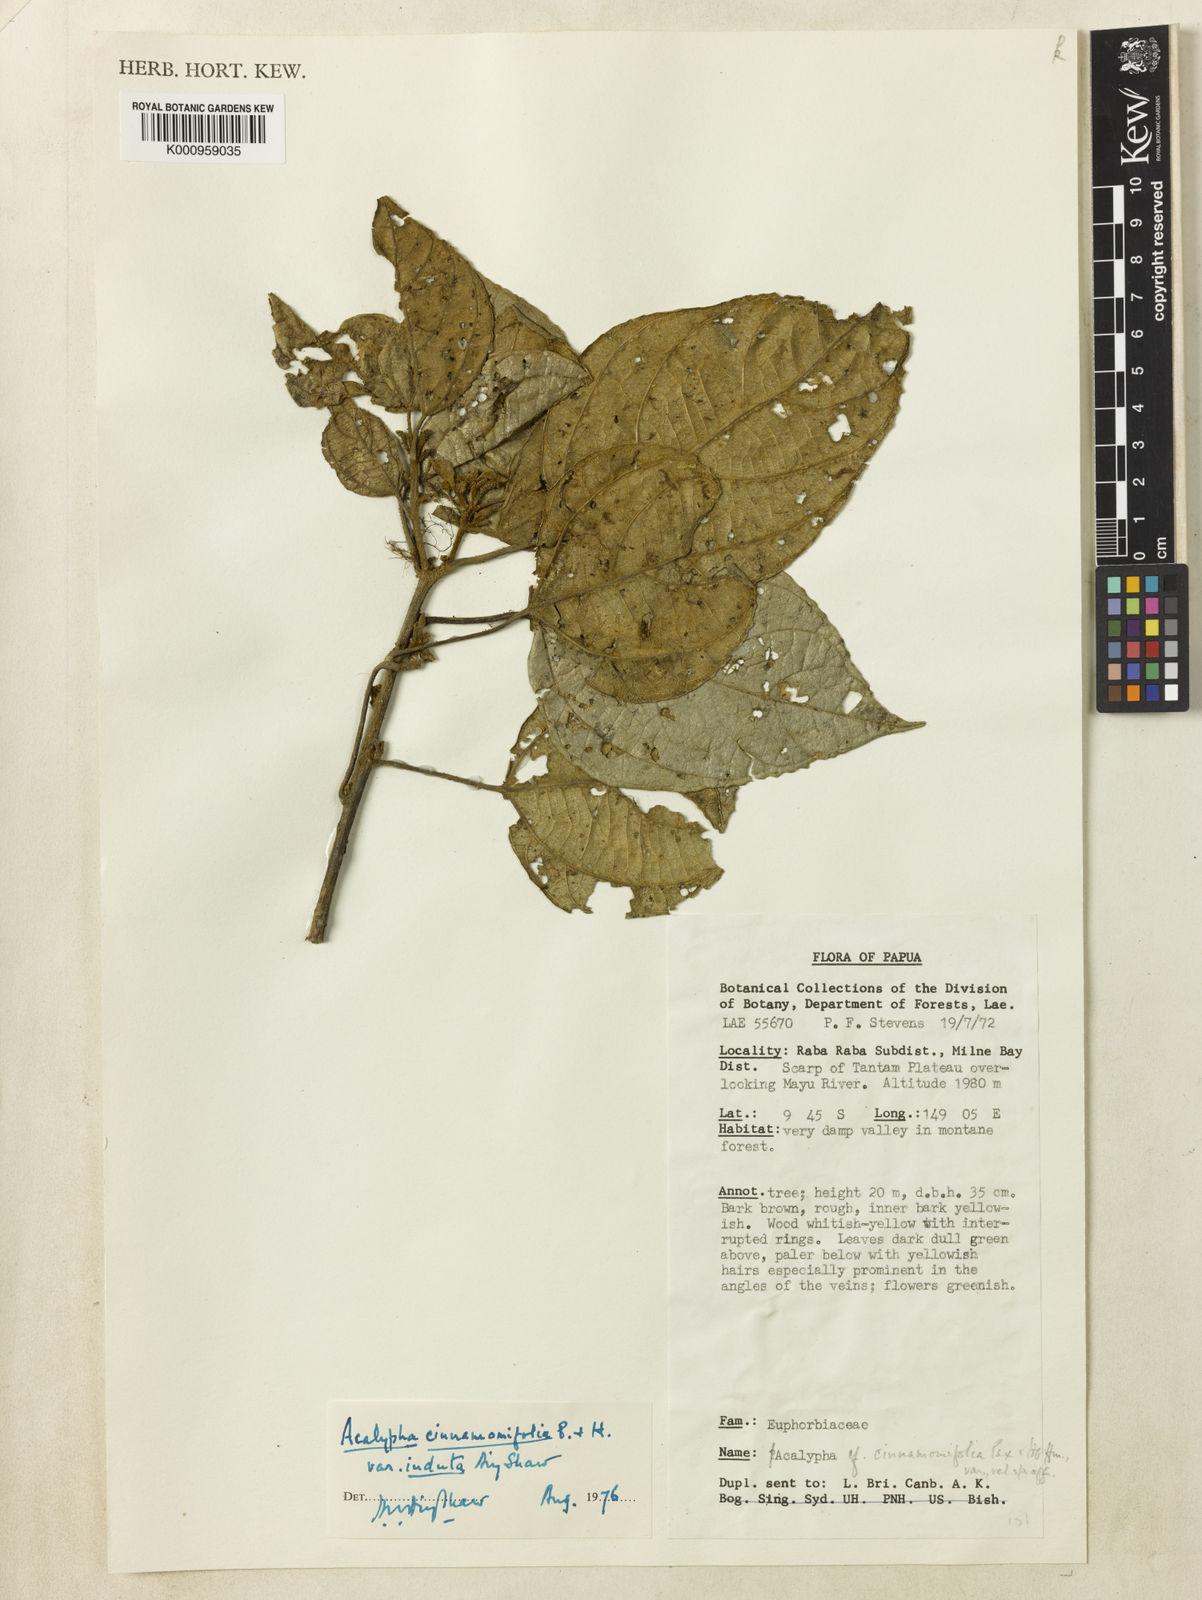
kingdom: Plantae
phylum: Tracheophyta
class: Magnoliopsida
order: Malpighiales
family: Euphorbiaceae
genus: Acalypha
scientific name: Acalypha caturus
